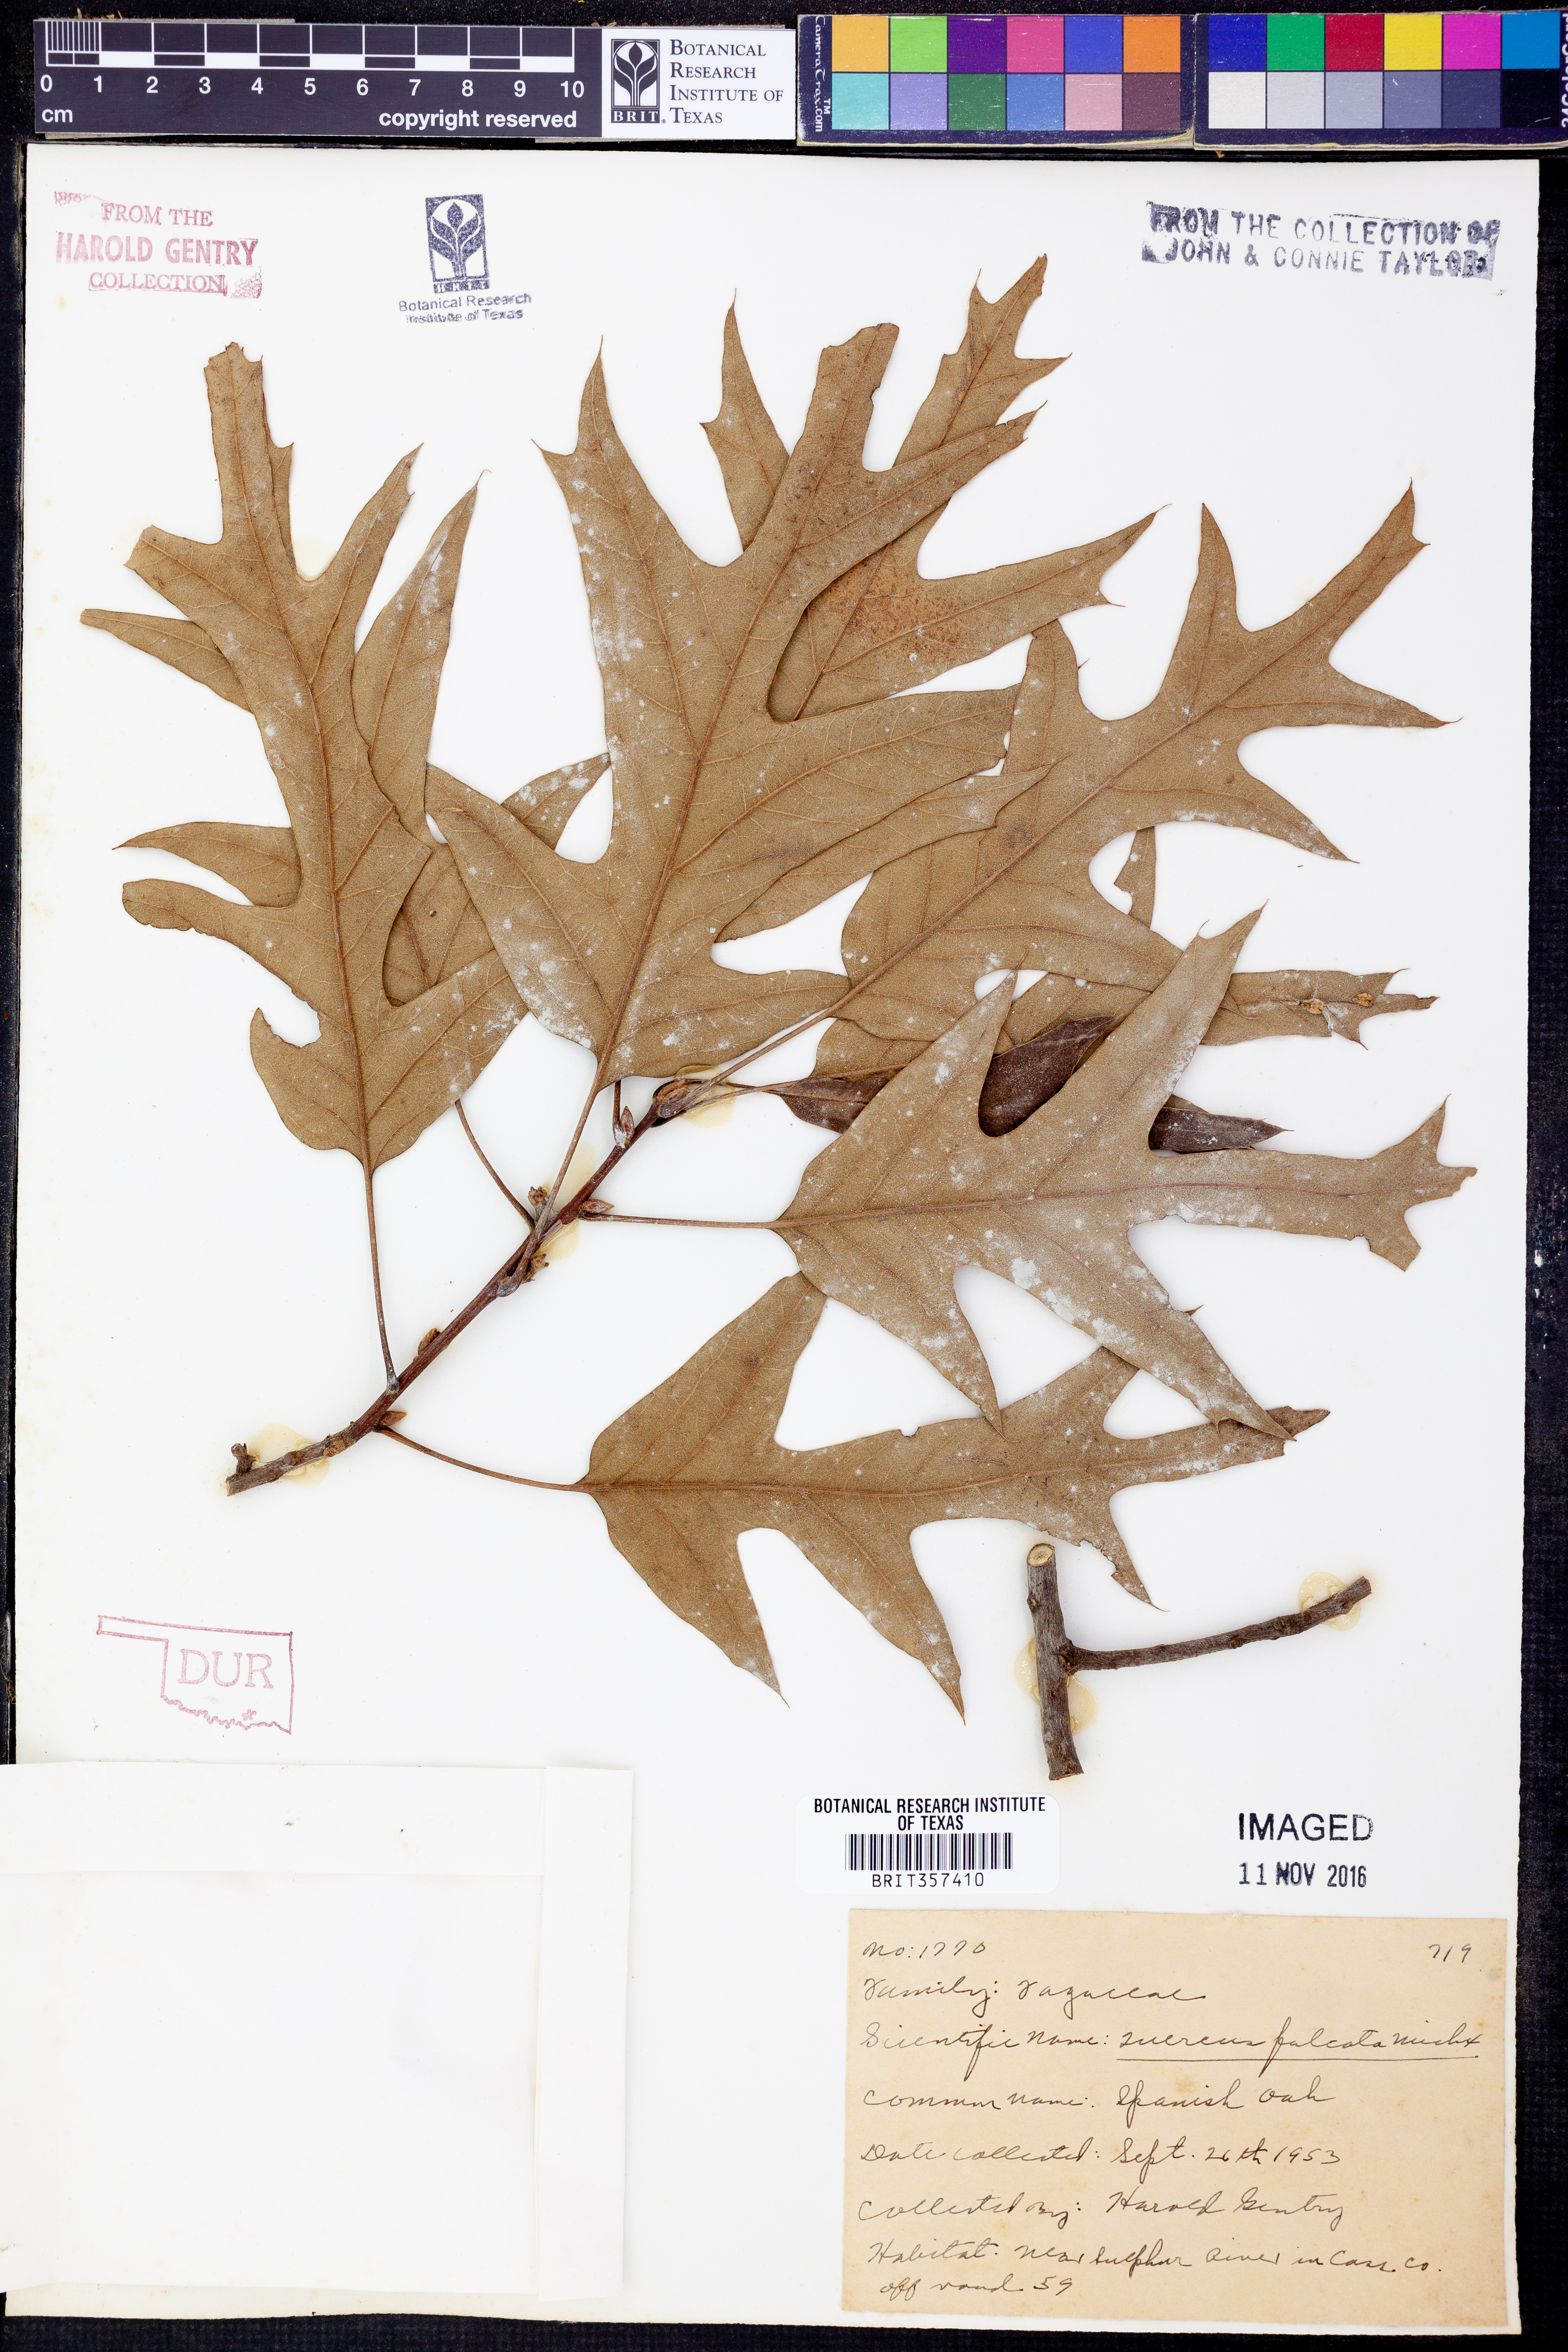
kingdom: Plantae
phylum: Tracheophyta
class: Magnoliopsida
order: Fagales
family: Fagaceae
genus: Quercus
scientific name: Quercus falcata
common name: Southern red oak
